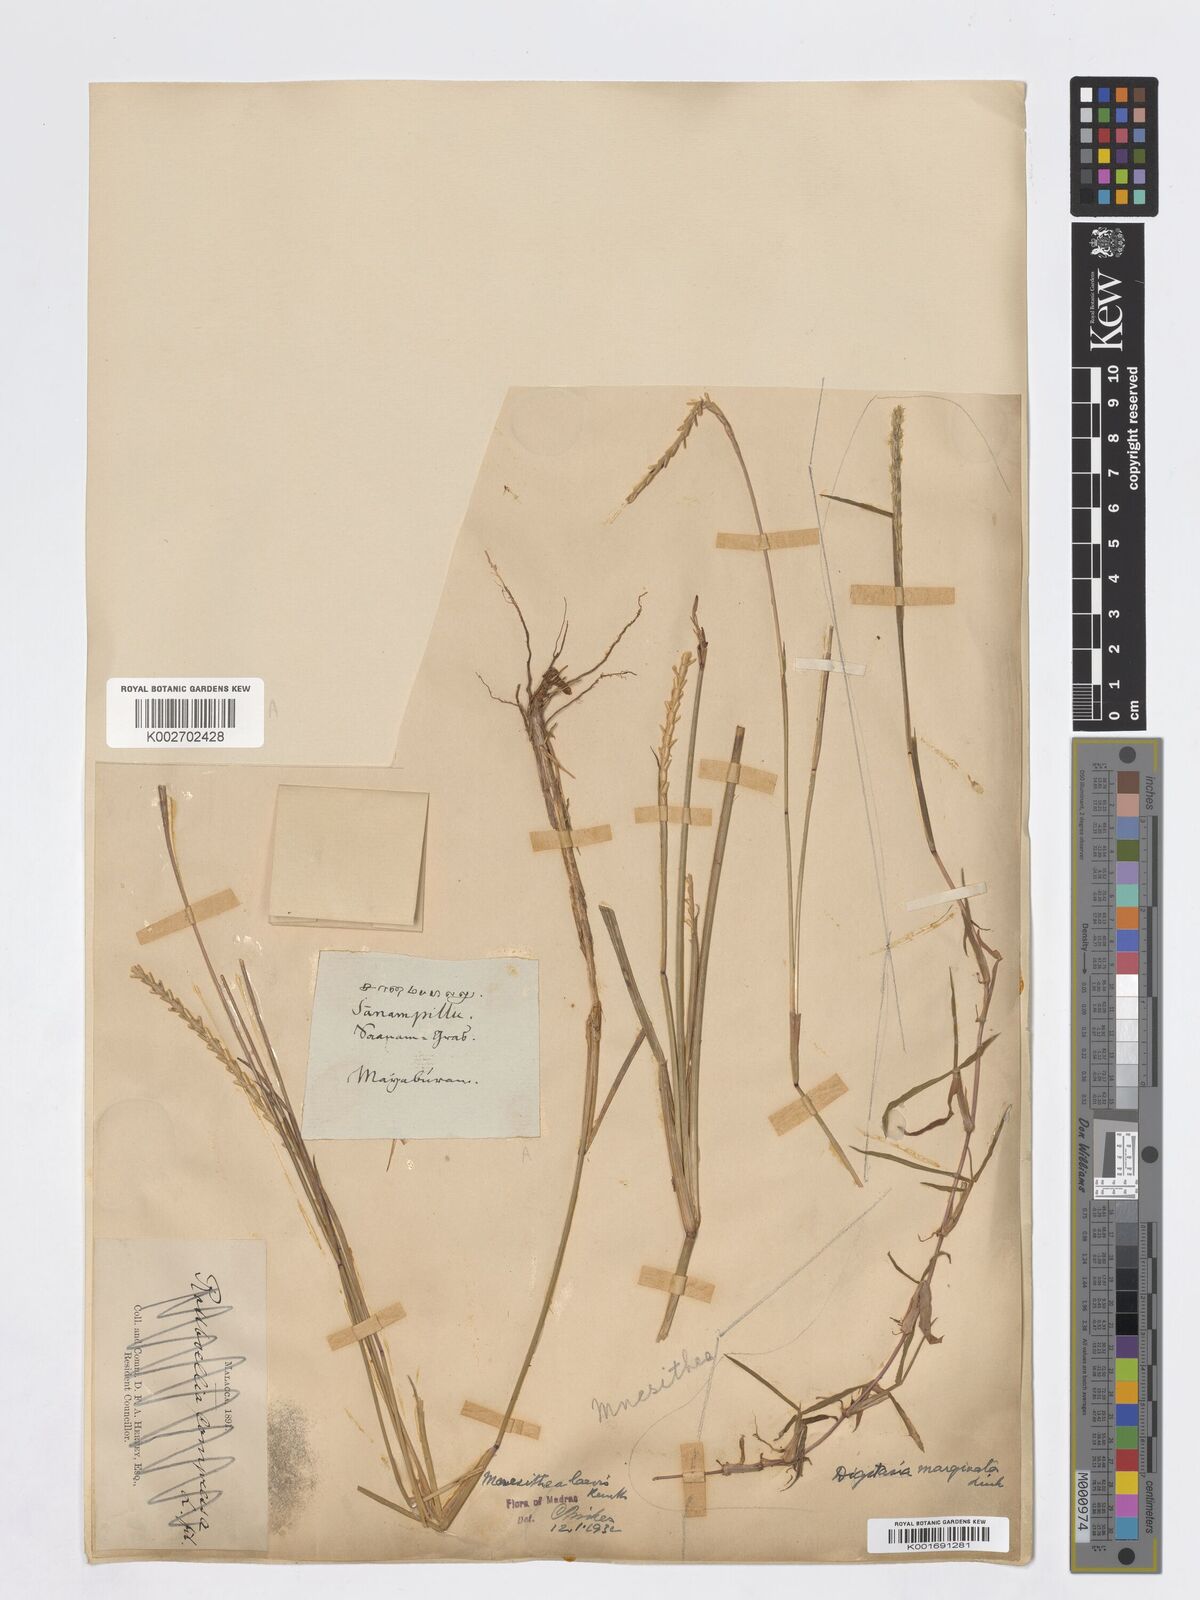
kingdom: Plantae
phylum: Tracheophyta
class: Liliopsida
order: Poales
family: Poaceae
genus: Digitaria
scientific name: Digitaria ciliaris
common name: Tropical finger-grass
